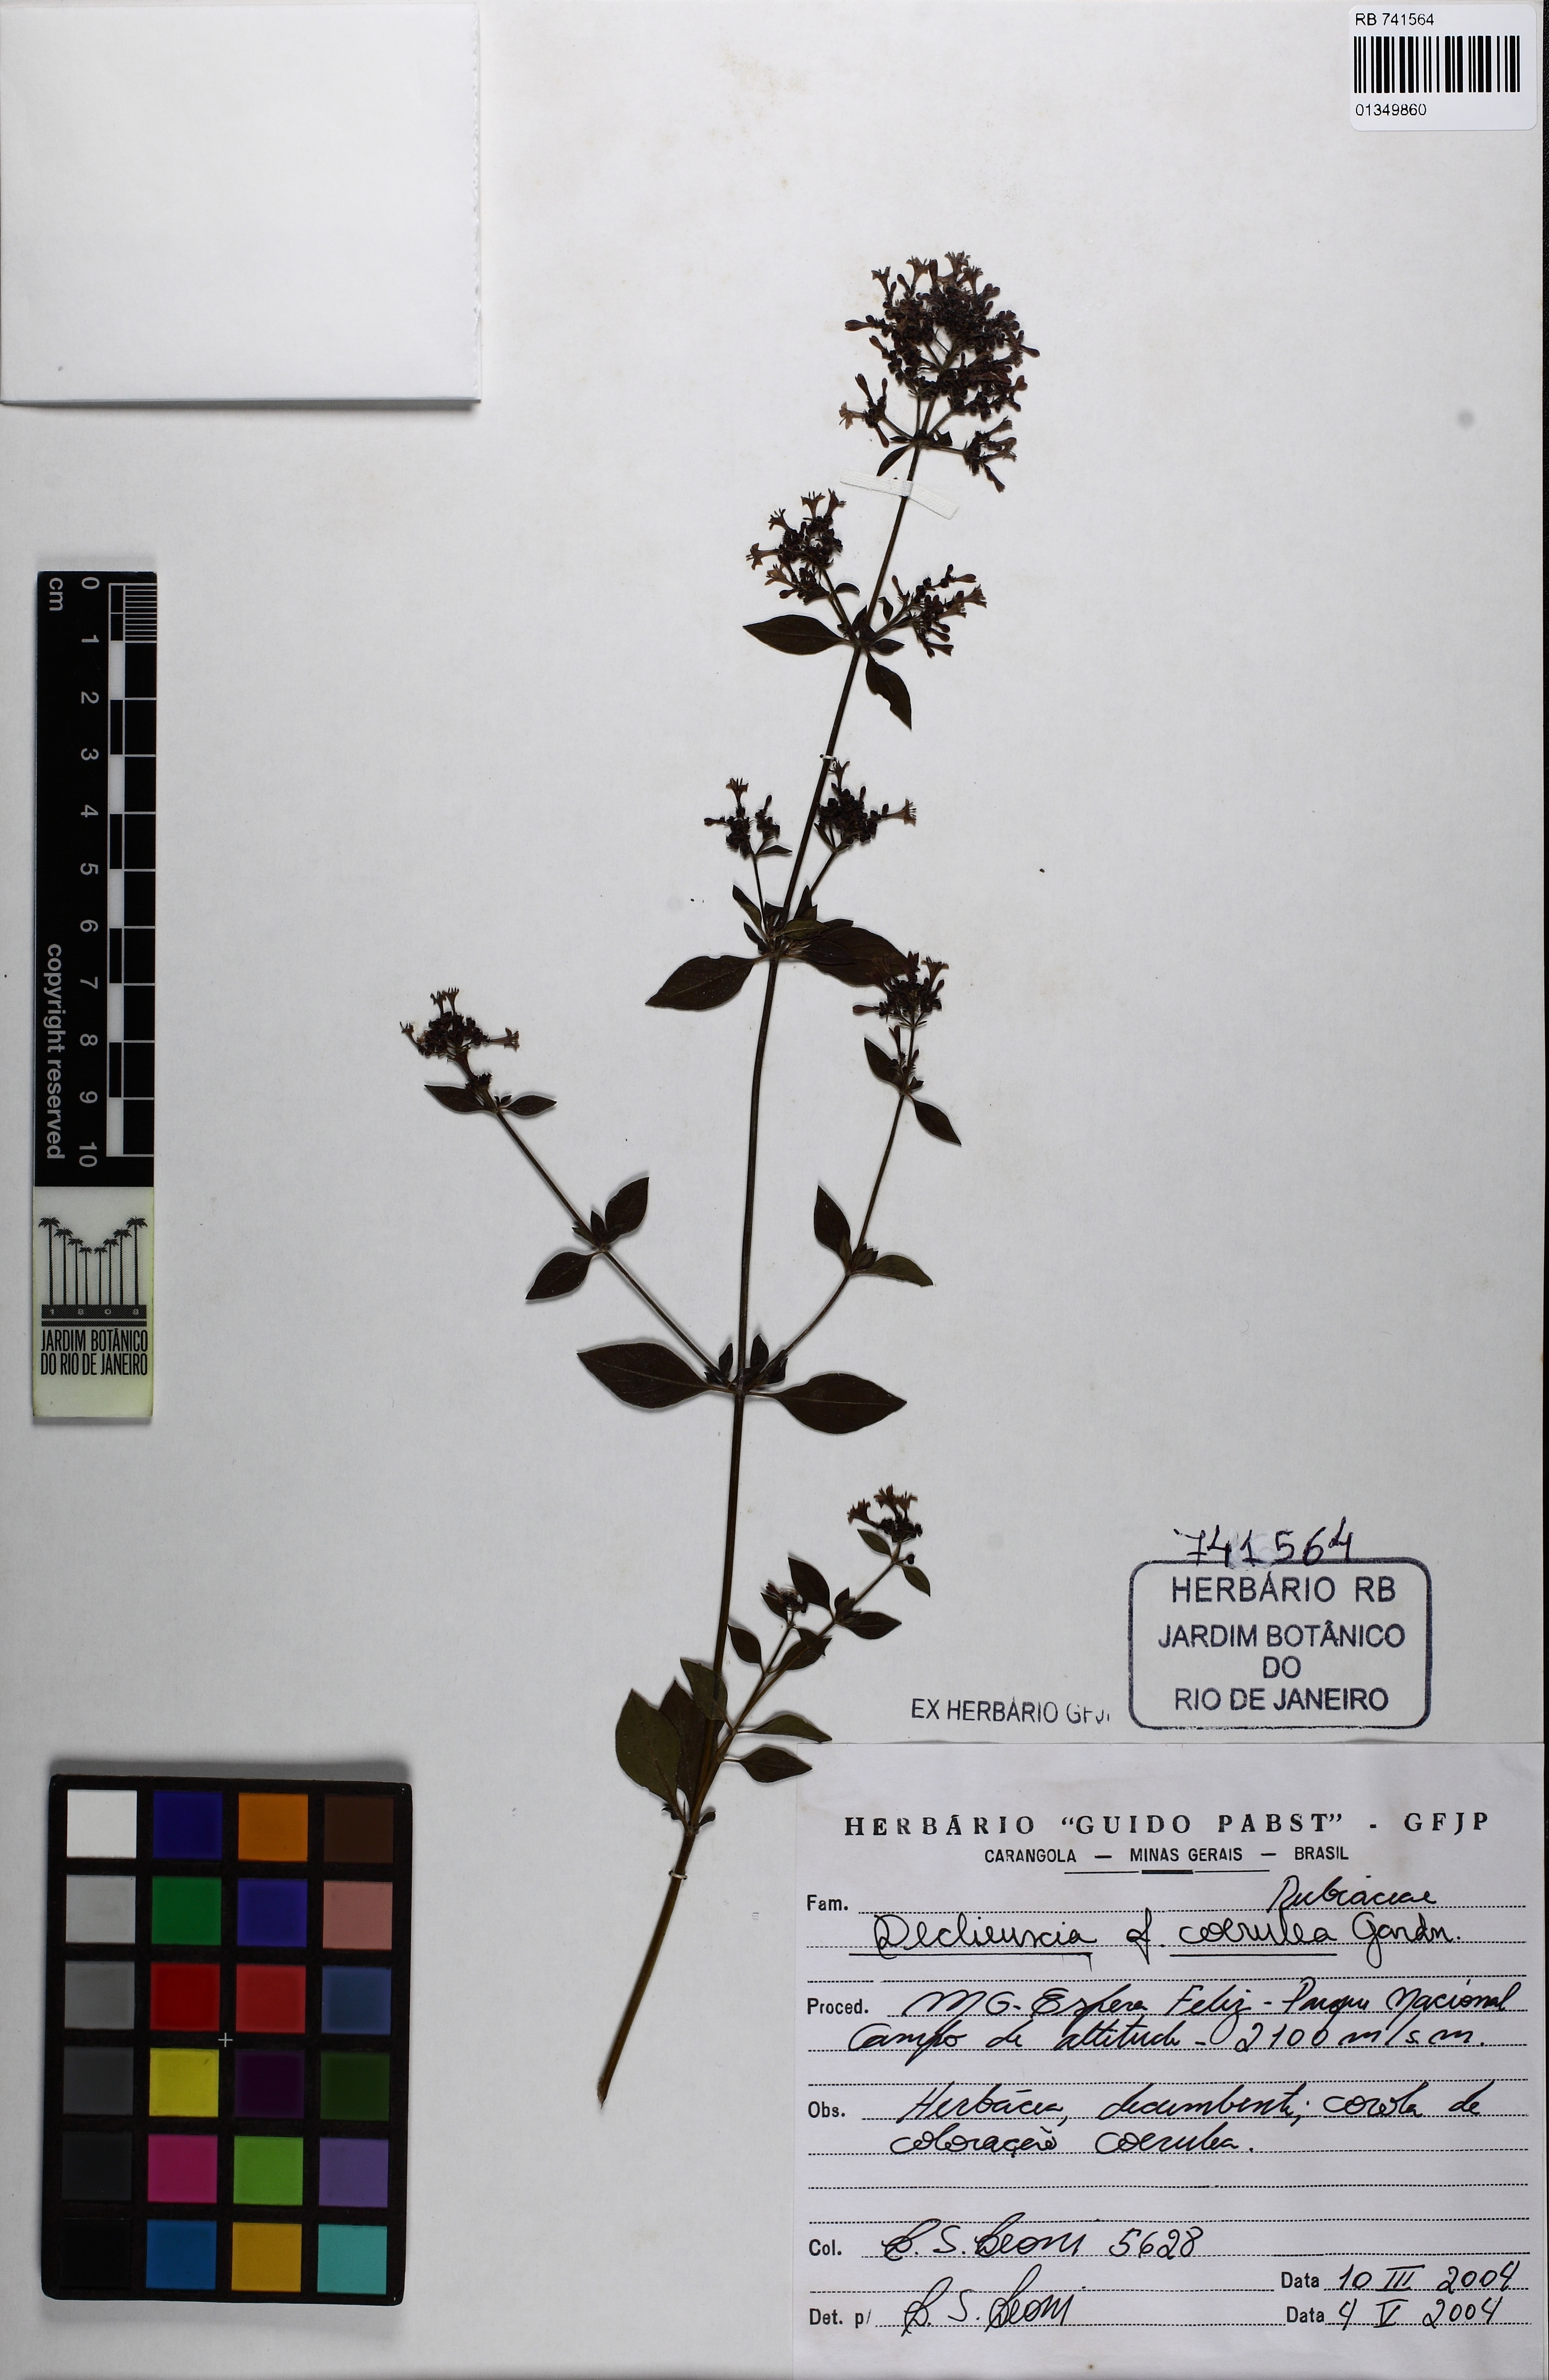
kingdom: Plantae
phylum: Tracheophyta
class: Magnoliopsida
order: Gentianales
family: Rubiaceae
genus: Declieuxia
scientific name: Declieuxia coerulea
